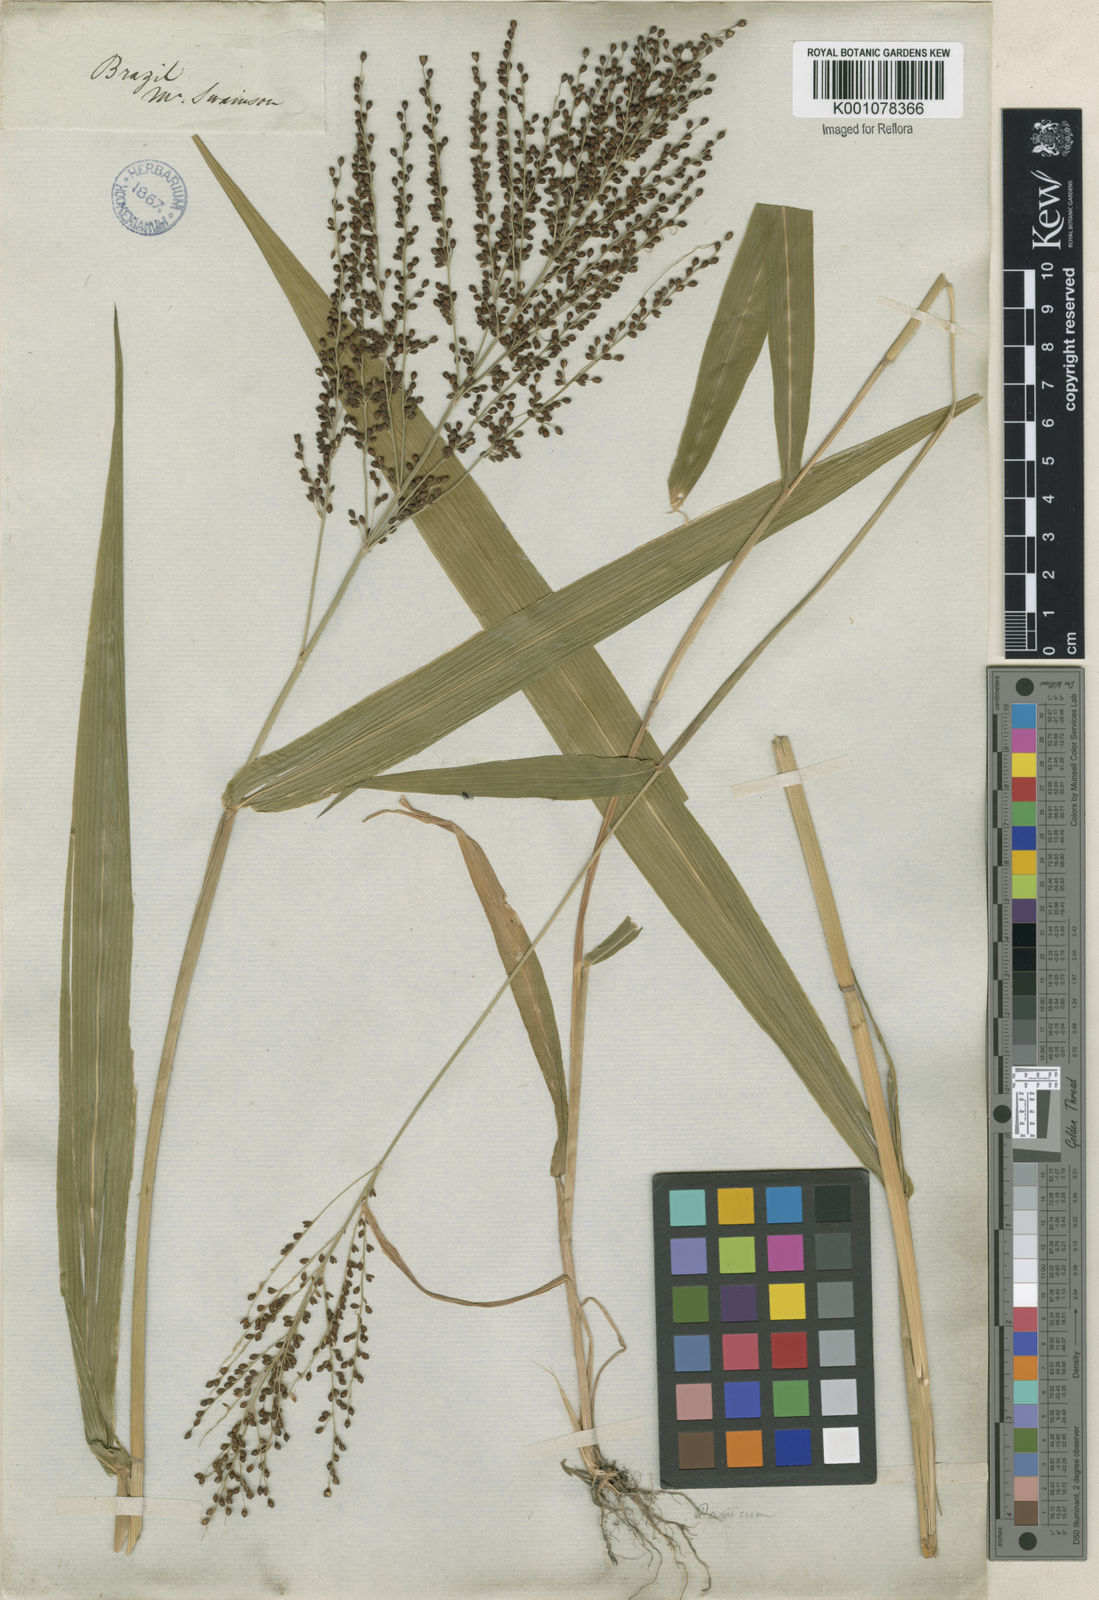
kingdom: Plantae
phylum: Tracheophyta
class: Liliopsida
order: Poales
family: Poaceae
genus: Urochloa
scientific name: Urochloa fusca
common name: Browntop signal grass
